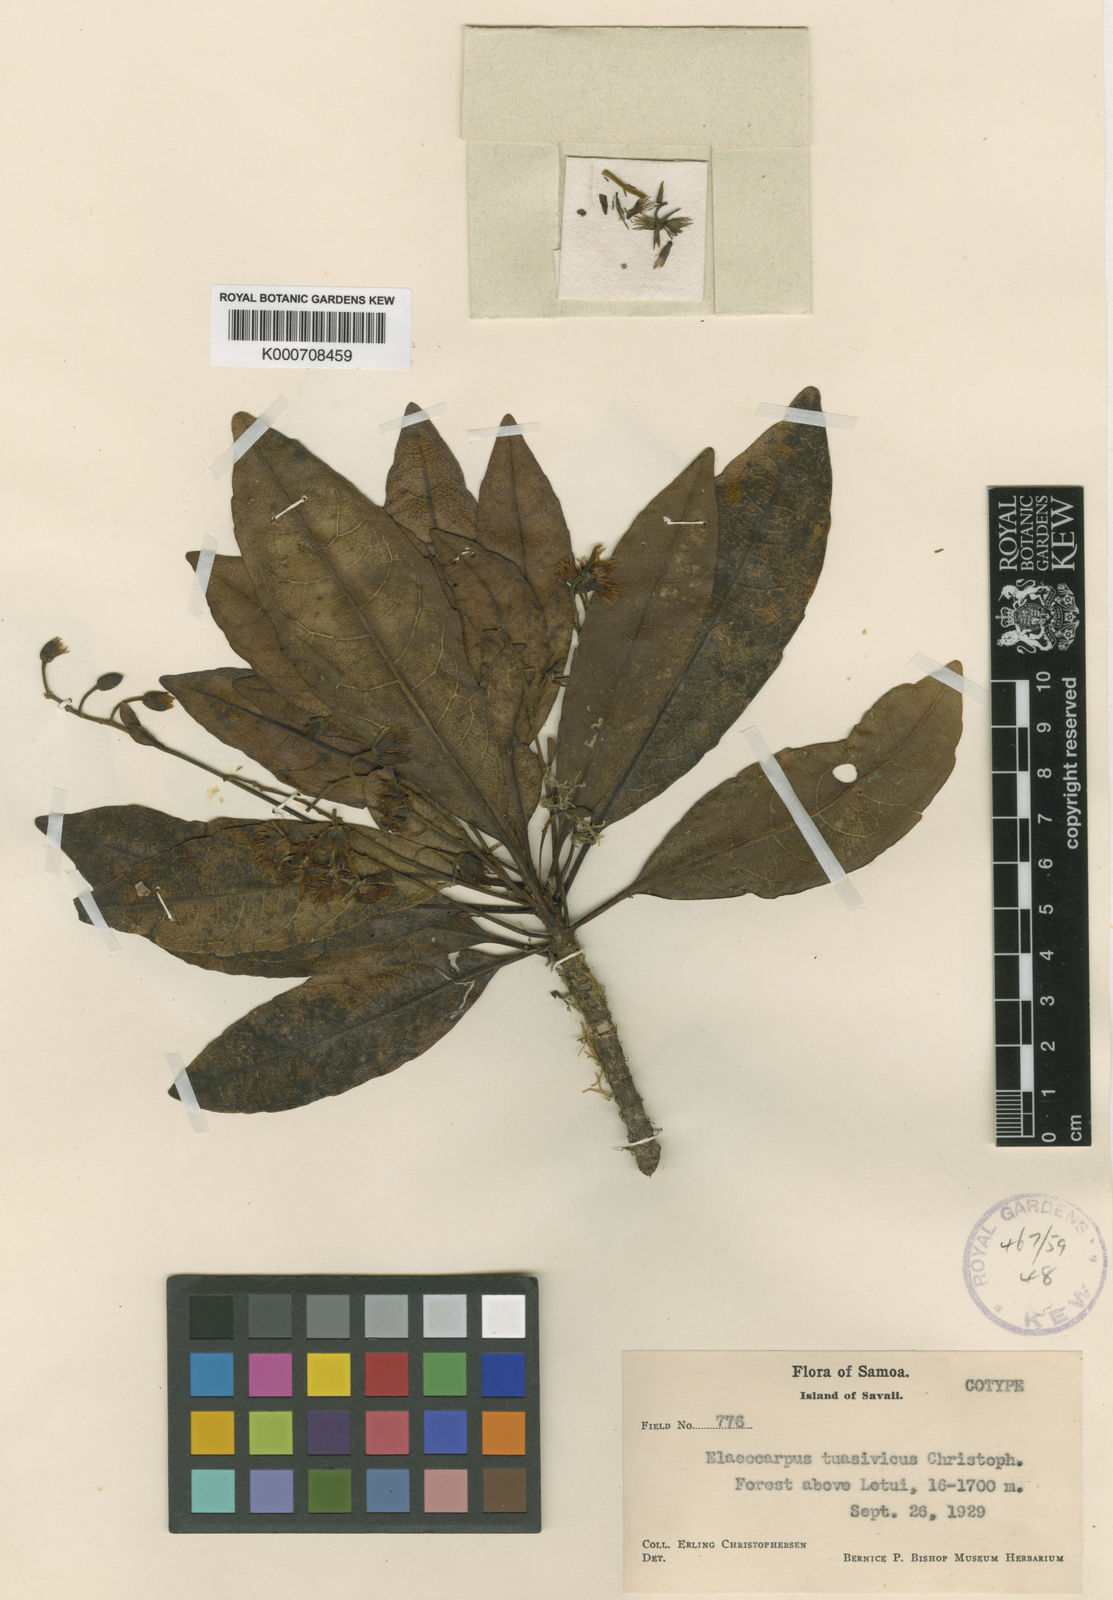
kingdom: Plantae
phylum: Tracheophyta
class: Magnoliopsida
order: Oxalidales
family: Elaeocarpaceae
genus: Elaeocarpus
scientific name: Elaeocarpus tuasivicus
